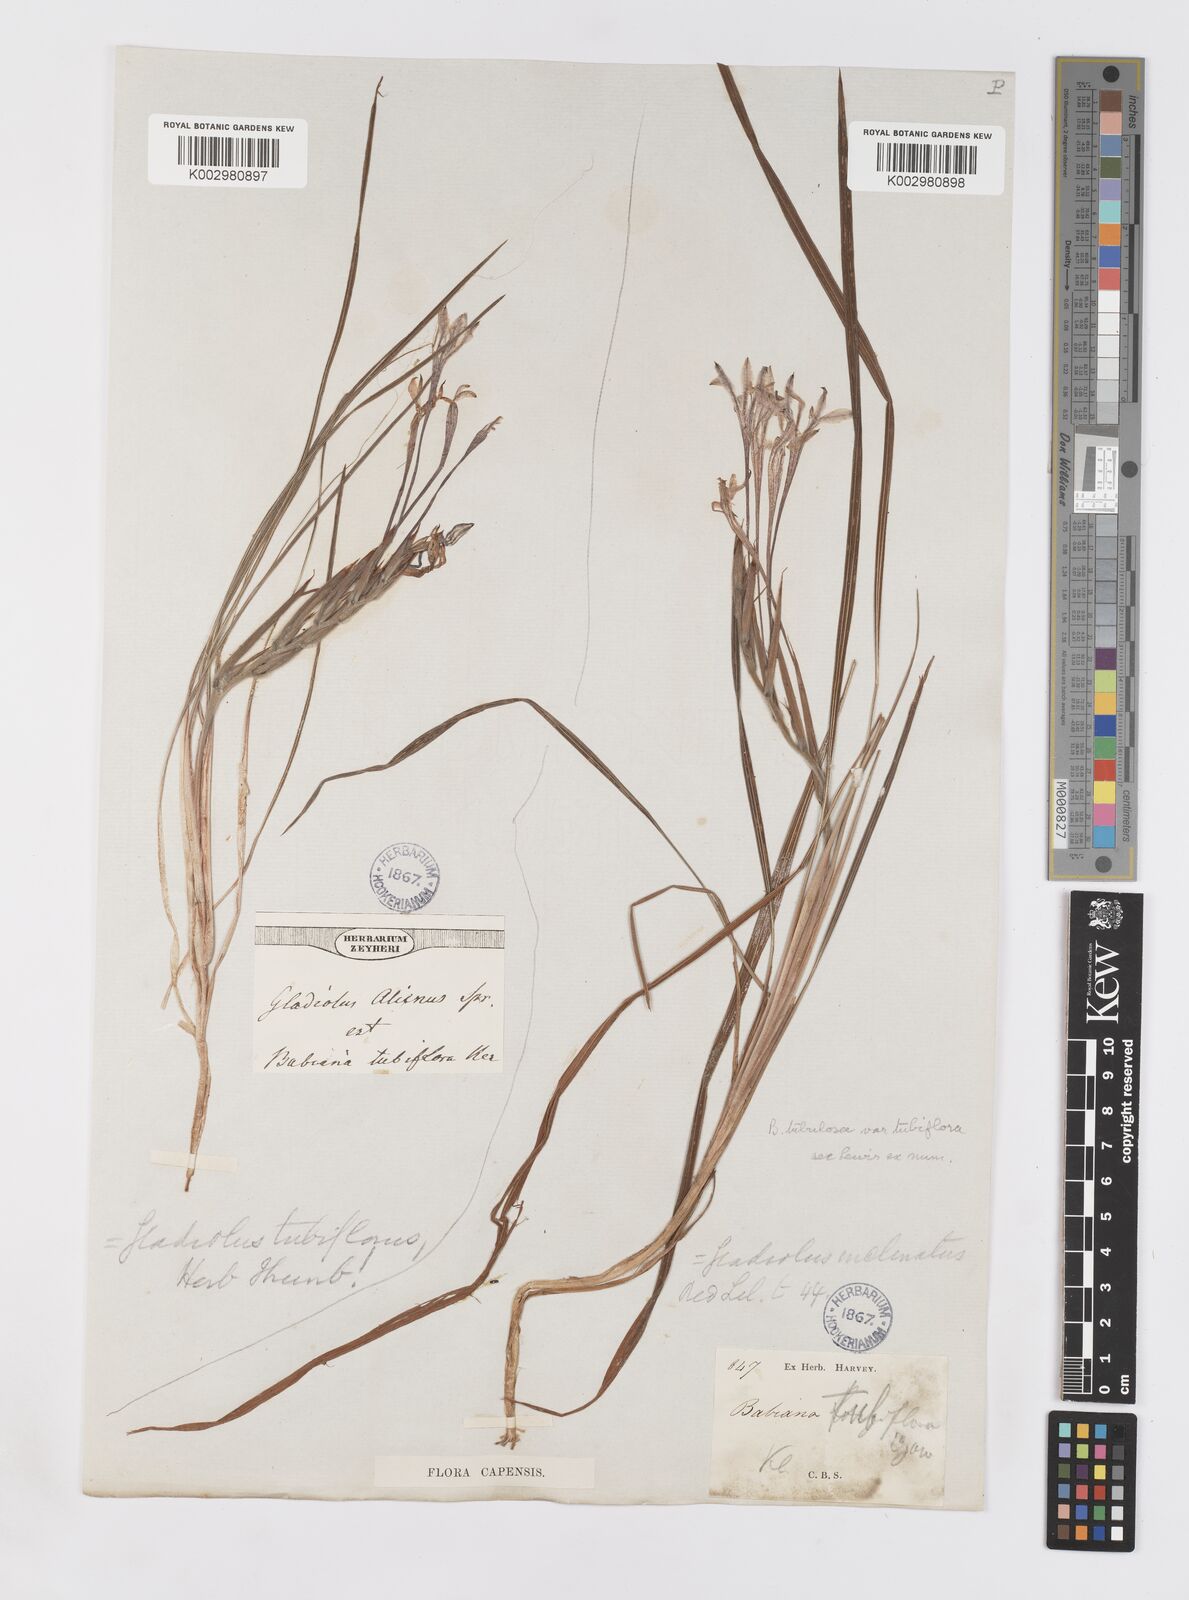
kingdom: Plantae
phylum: Tracheophyta
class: Liliopsida
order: Asparagales
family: Iridaceae
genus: Babiana
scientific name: Babiana tubiflora
